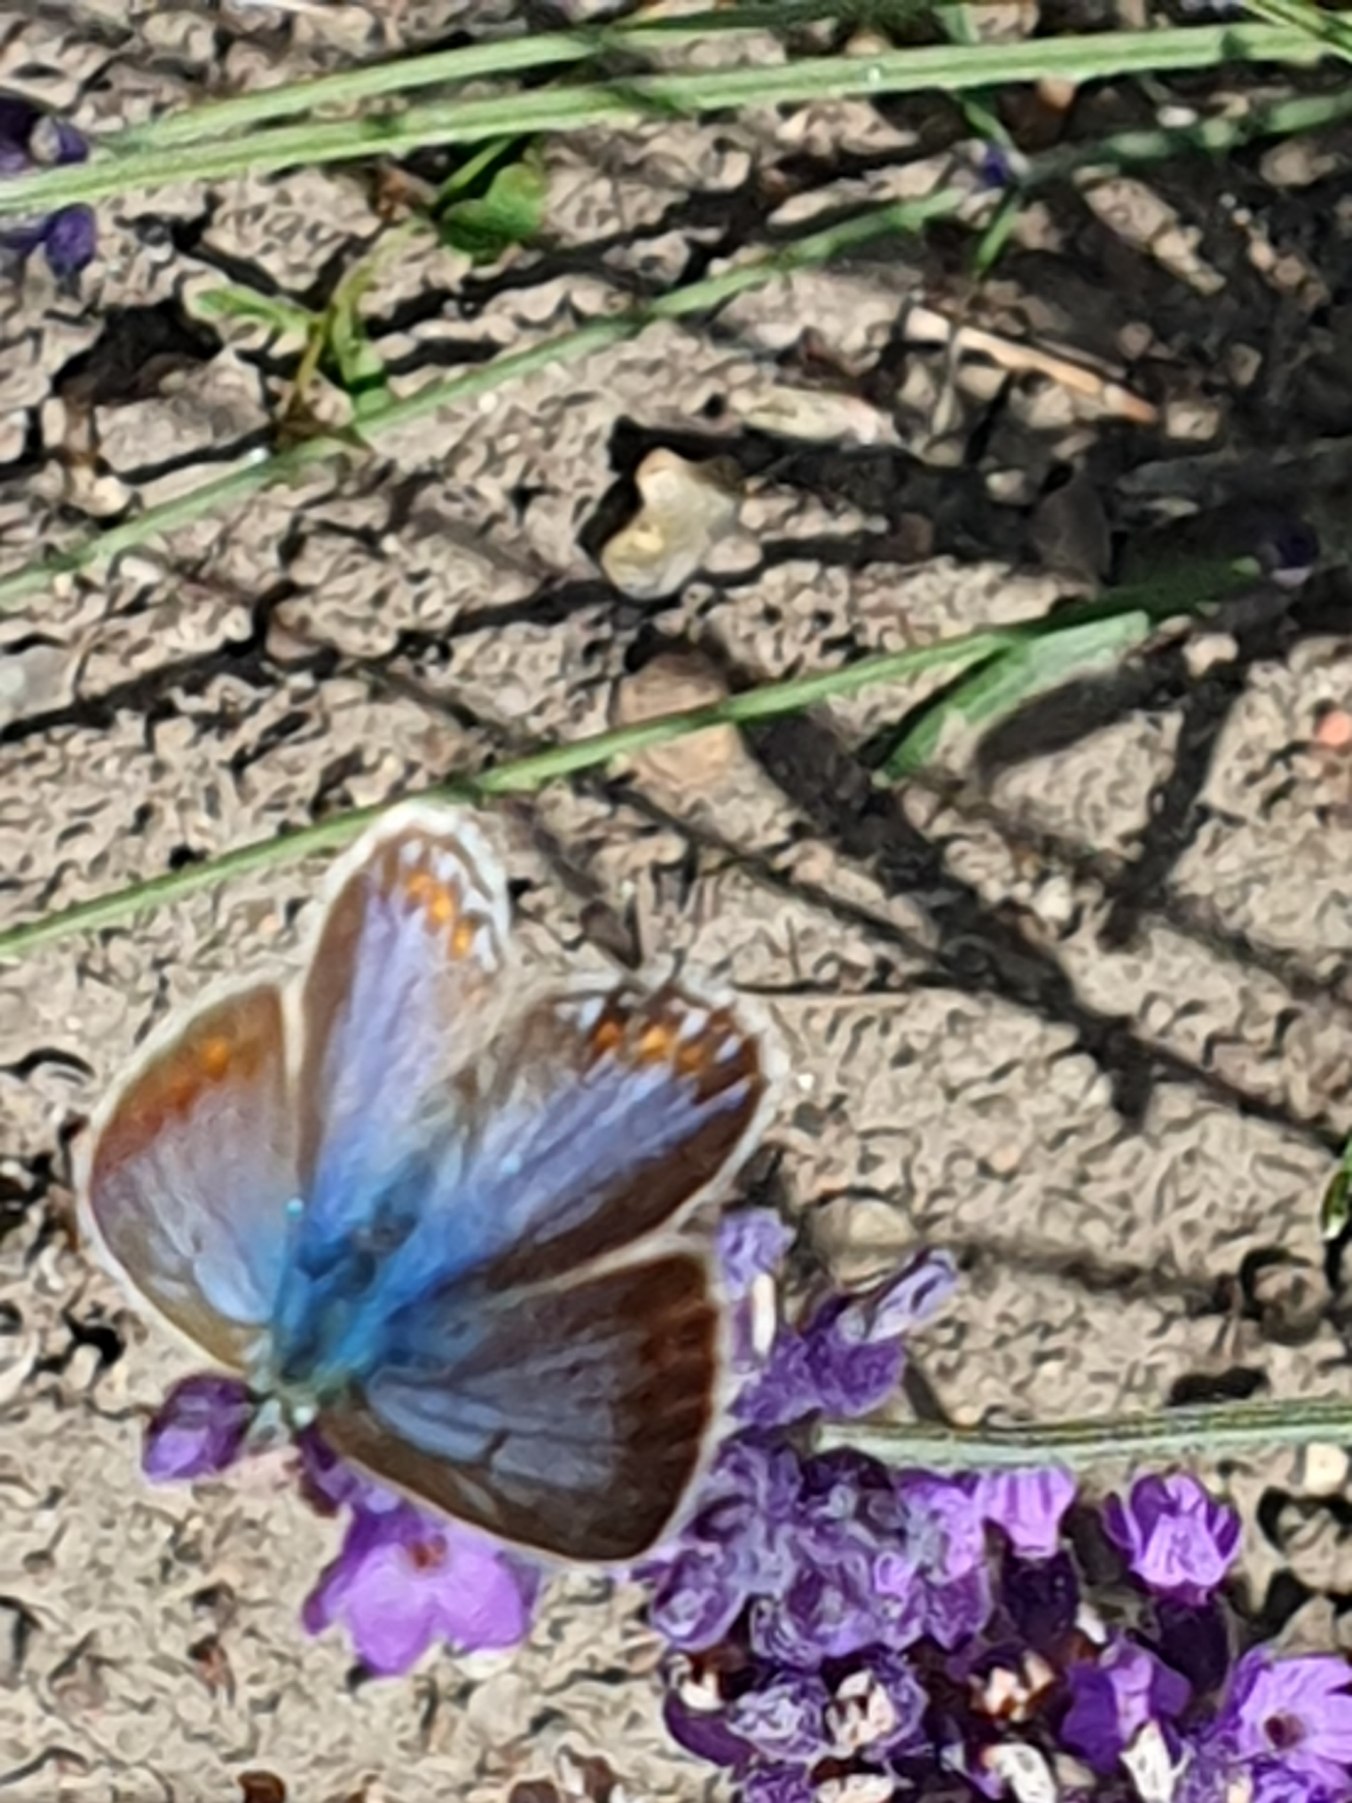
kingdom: Animalia
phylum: Arthropoda
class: Insecta
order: Lepidoptera
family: Lycaenidae
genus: Polyommatus
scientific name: Polyommatus icarus
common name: Almindelig blåfugl
